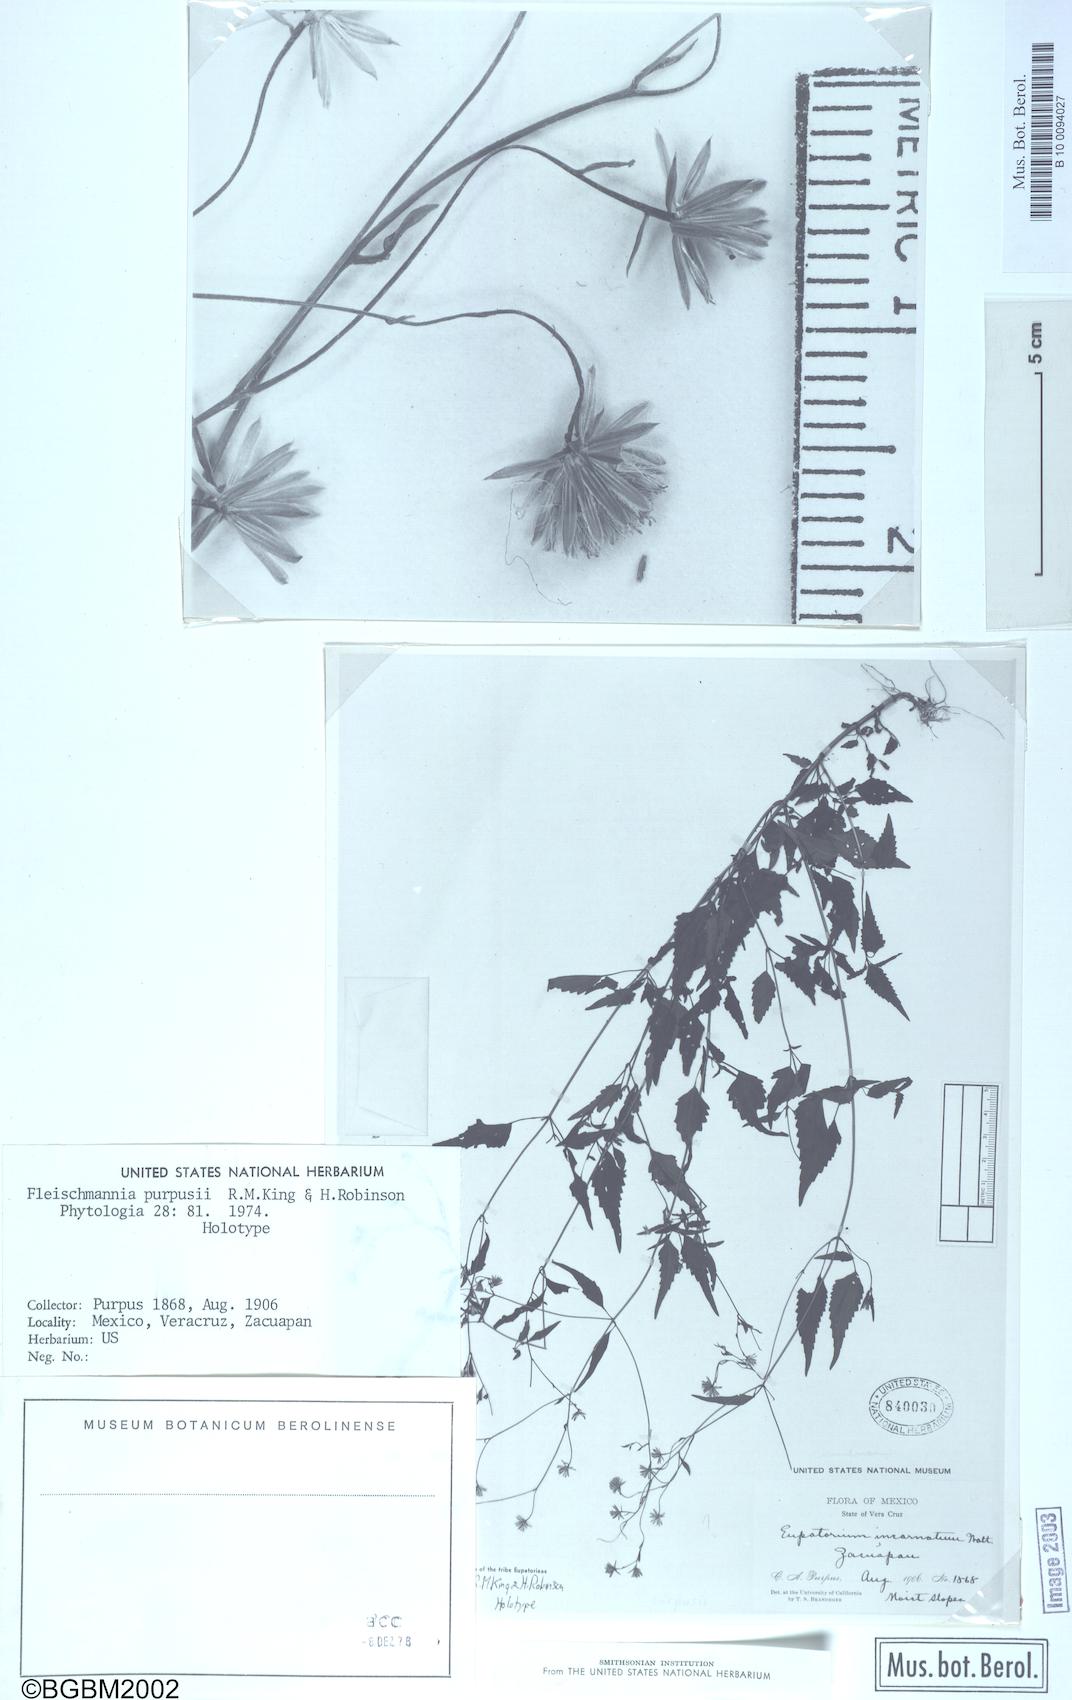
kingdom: Plantae
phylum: Tracheophyta
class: Magnoliopsida
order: Asterales
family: Asteraceae
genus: Fleischmannia
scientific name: Fleischmannia purpusii
